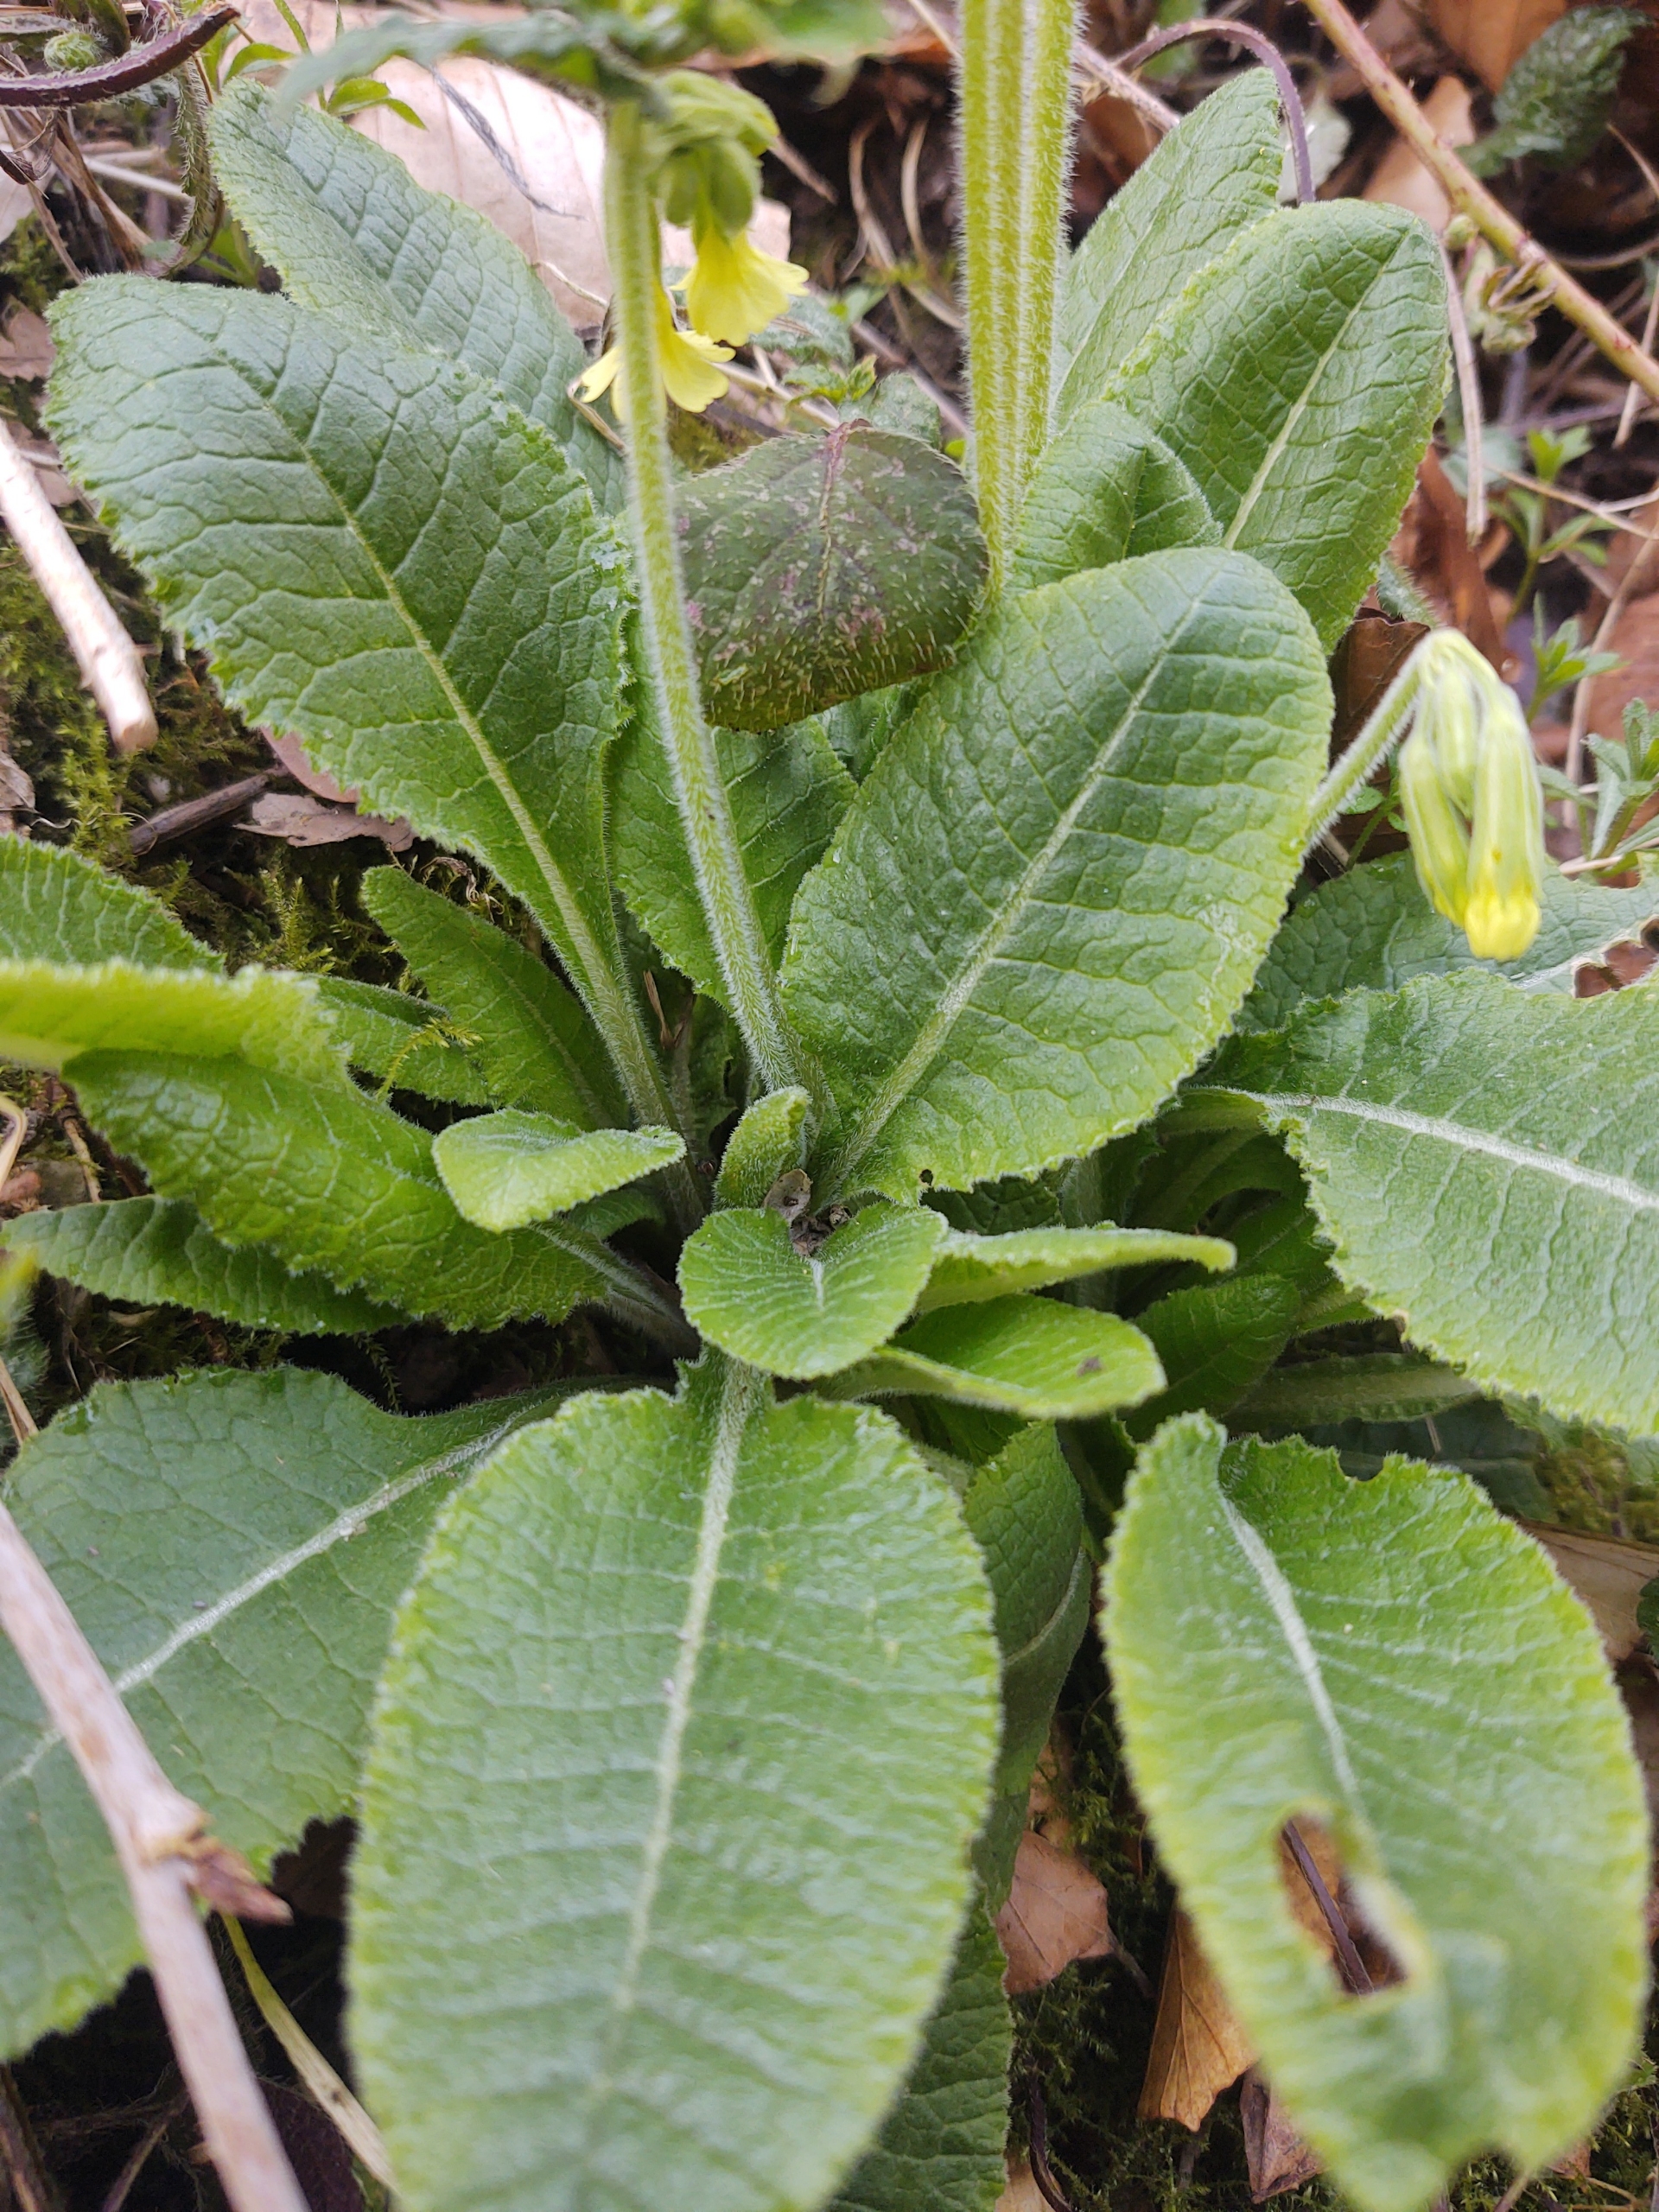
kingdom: Plantae
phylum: Tracheophyta
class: Magnoliopsida
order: Ericales
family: Primulaceae
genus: Primula
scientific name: Primula elatior
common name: Fladkravet kodriver
